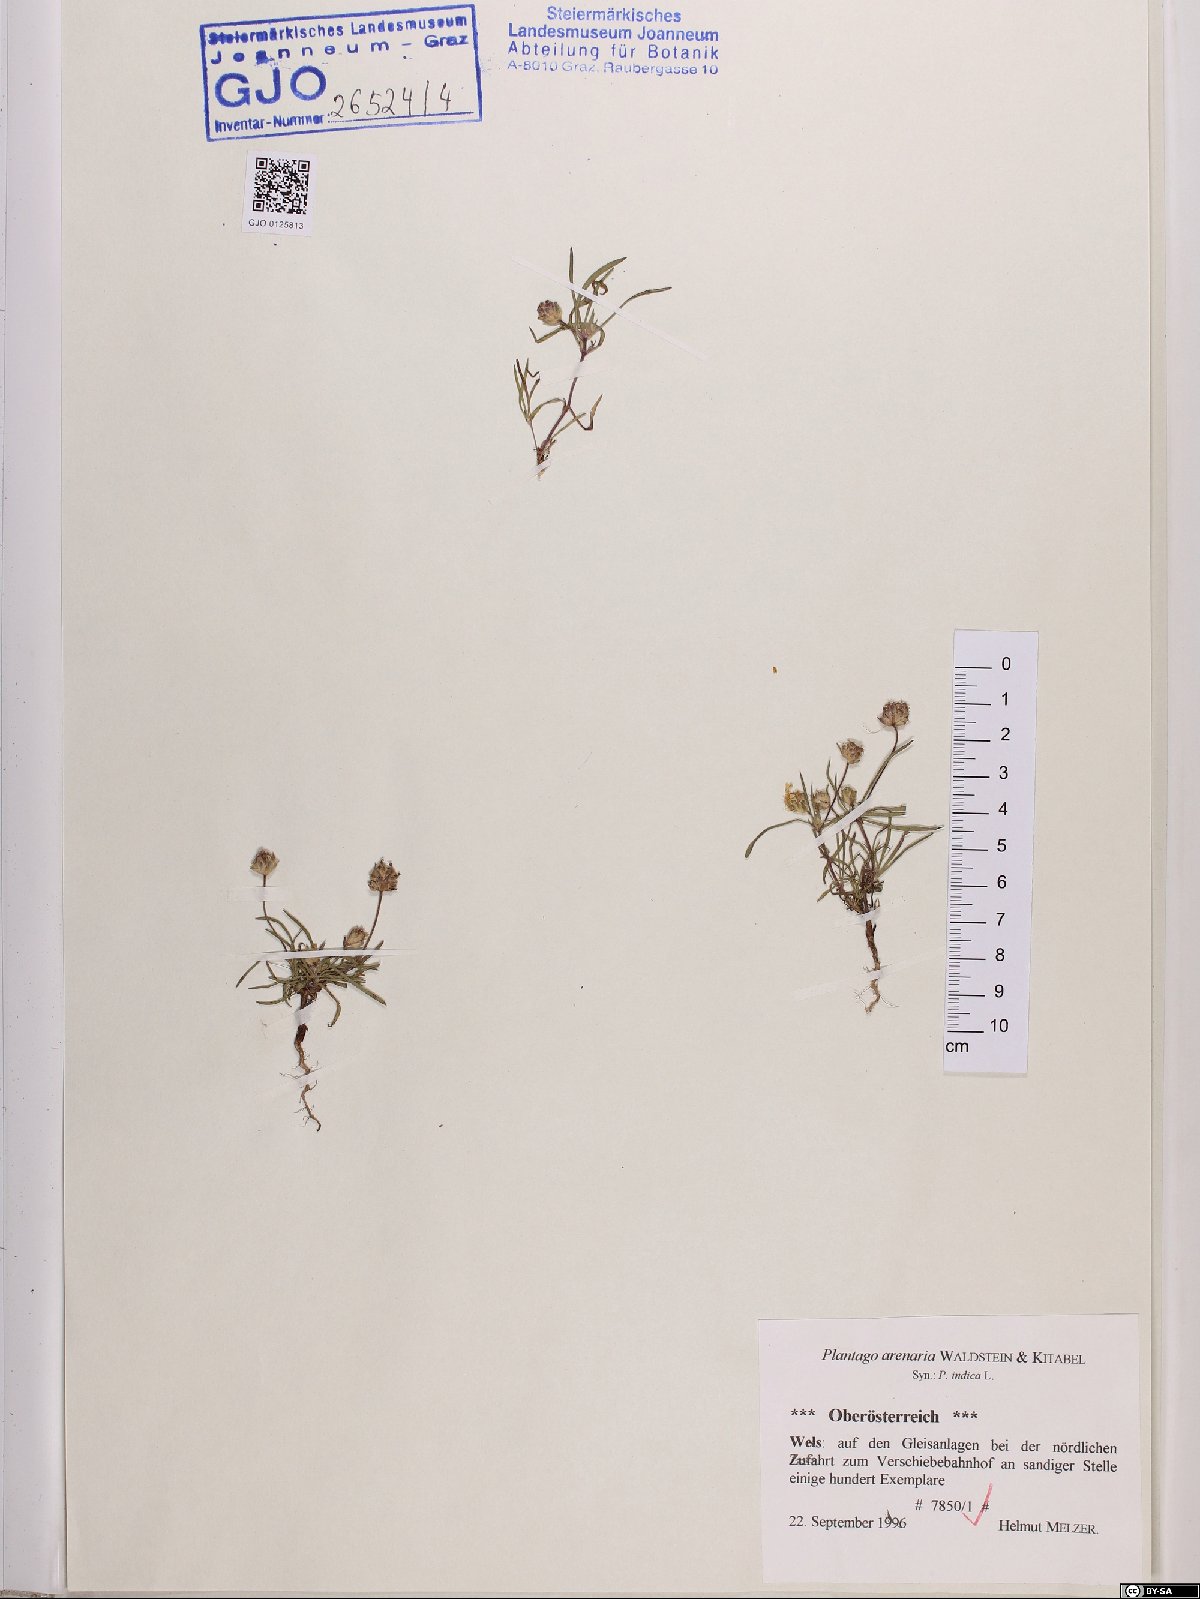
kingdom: Plantae
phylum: Tracheophyta
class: Magnoliopsida
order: Lamiales
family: Plantaginaceae
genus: Plantago
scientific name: Plantago arenaria
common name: Branched plantain
